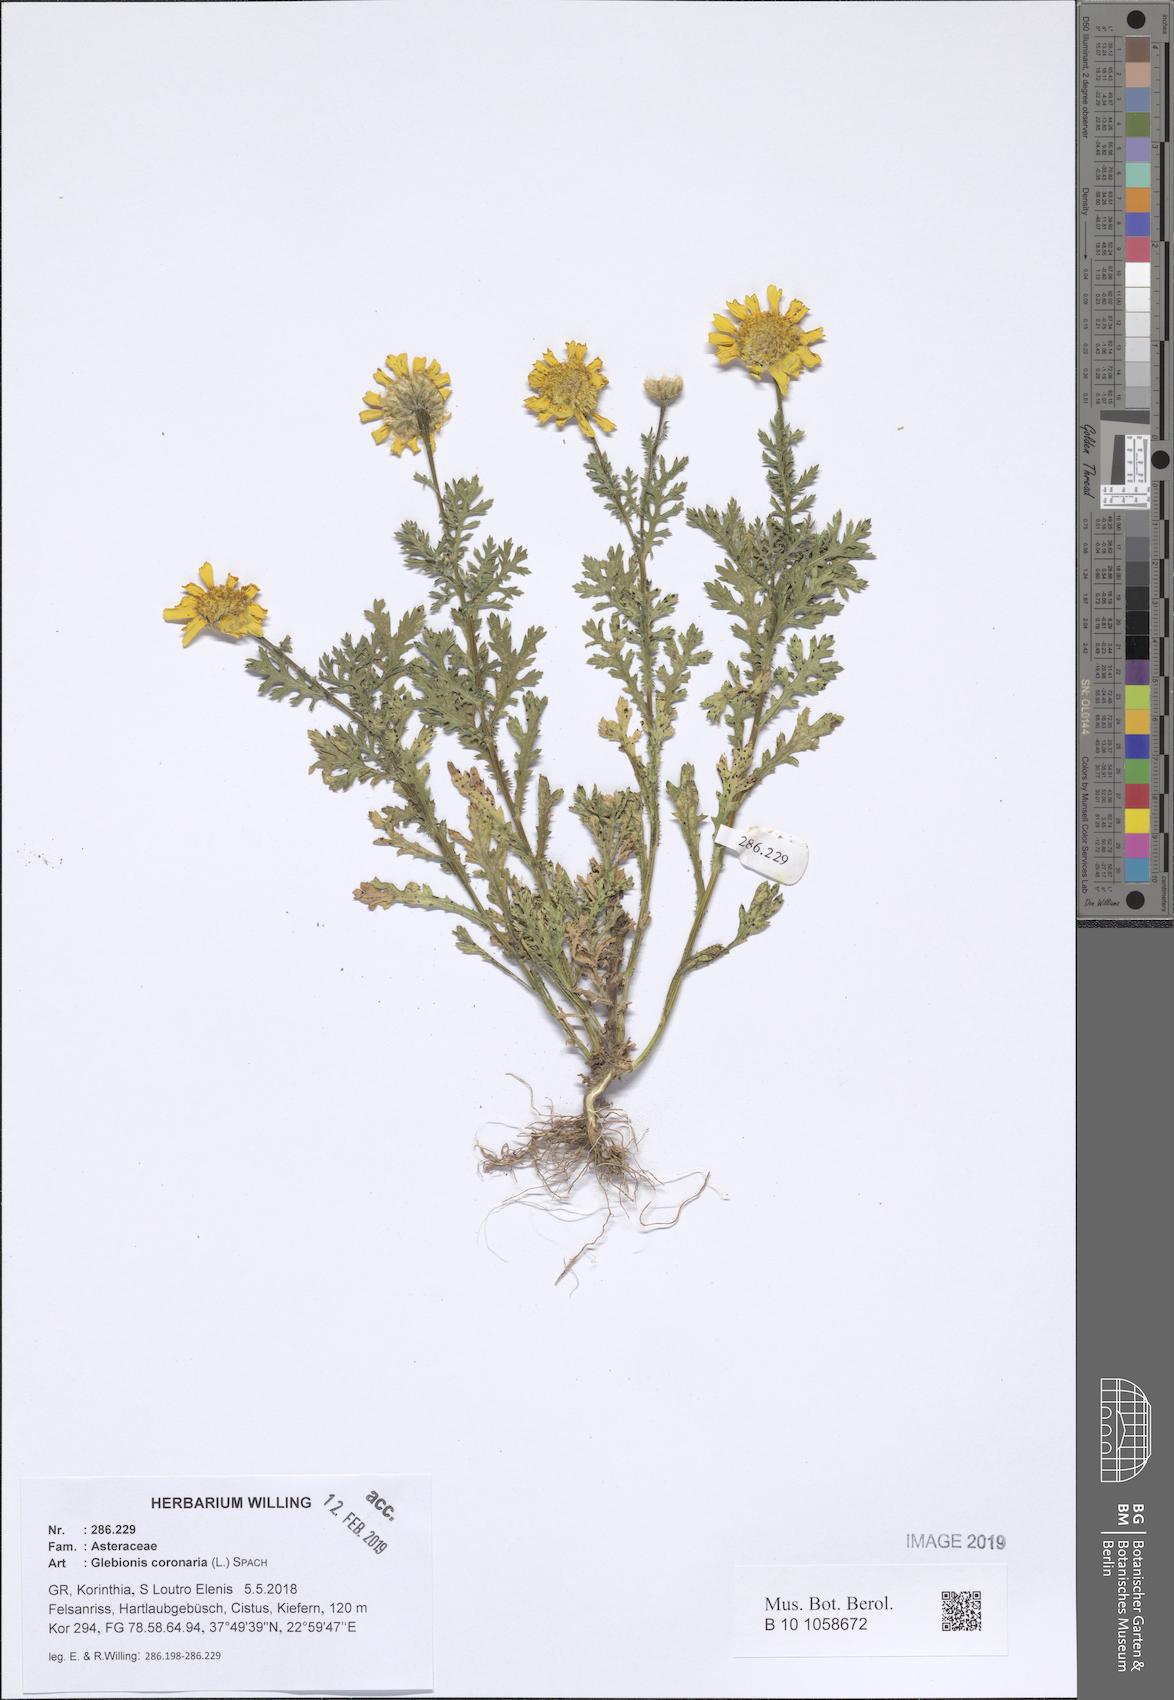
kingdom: Plantae
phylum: Tracheophyta
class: Magnoliopsida
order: Asterales
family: Asteraceae
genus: Glebionis
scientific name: Glebionis coronaria
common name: Crowndaisy
